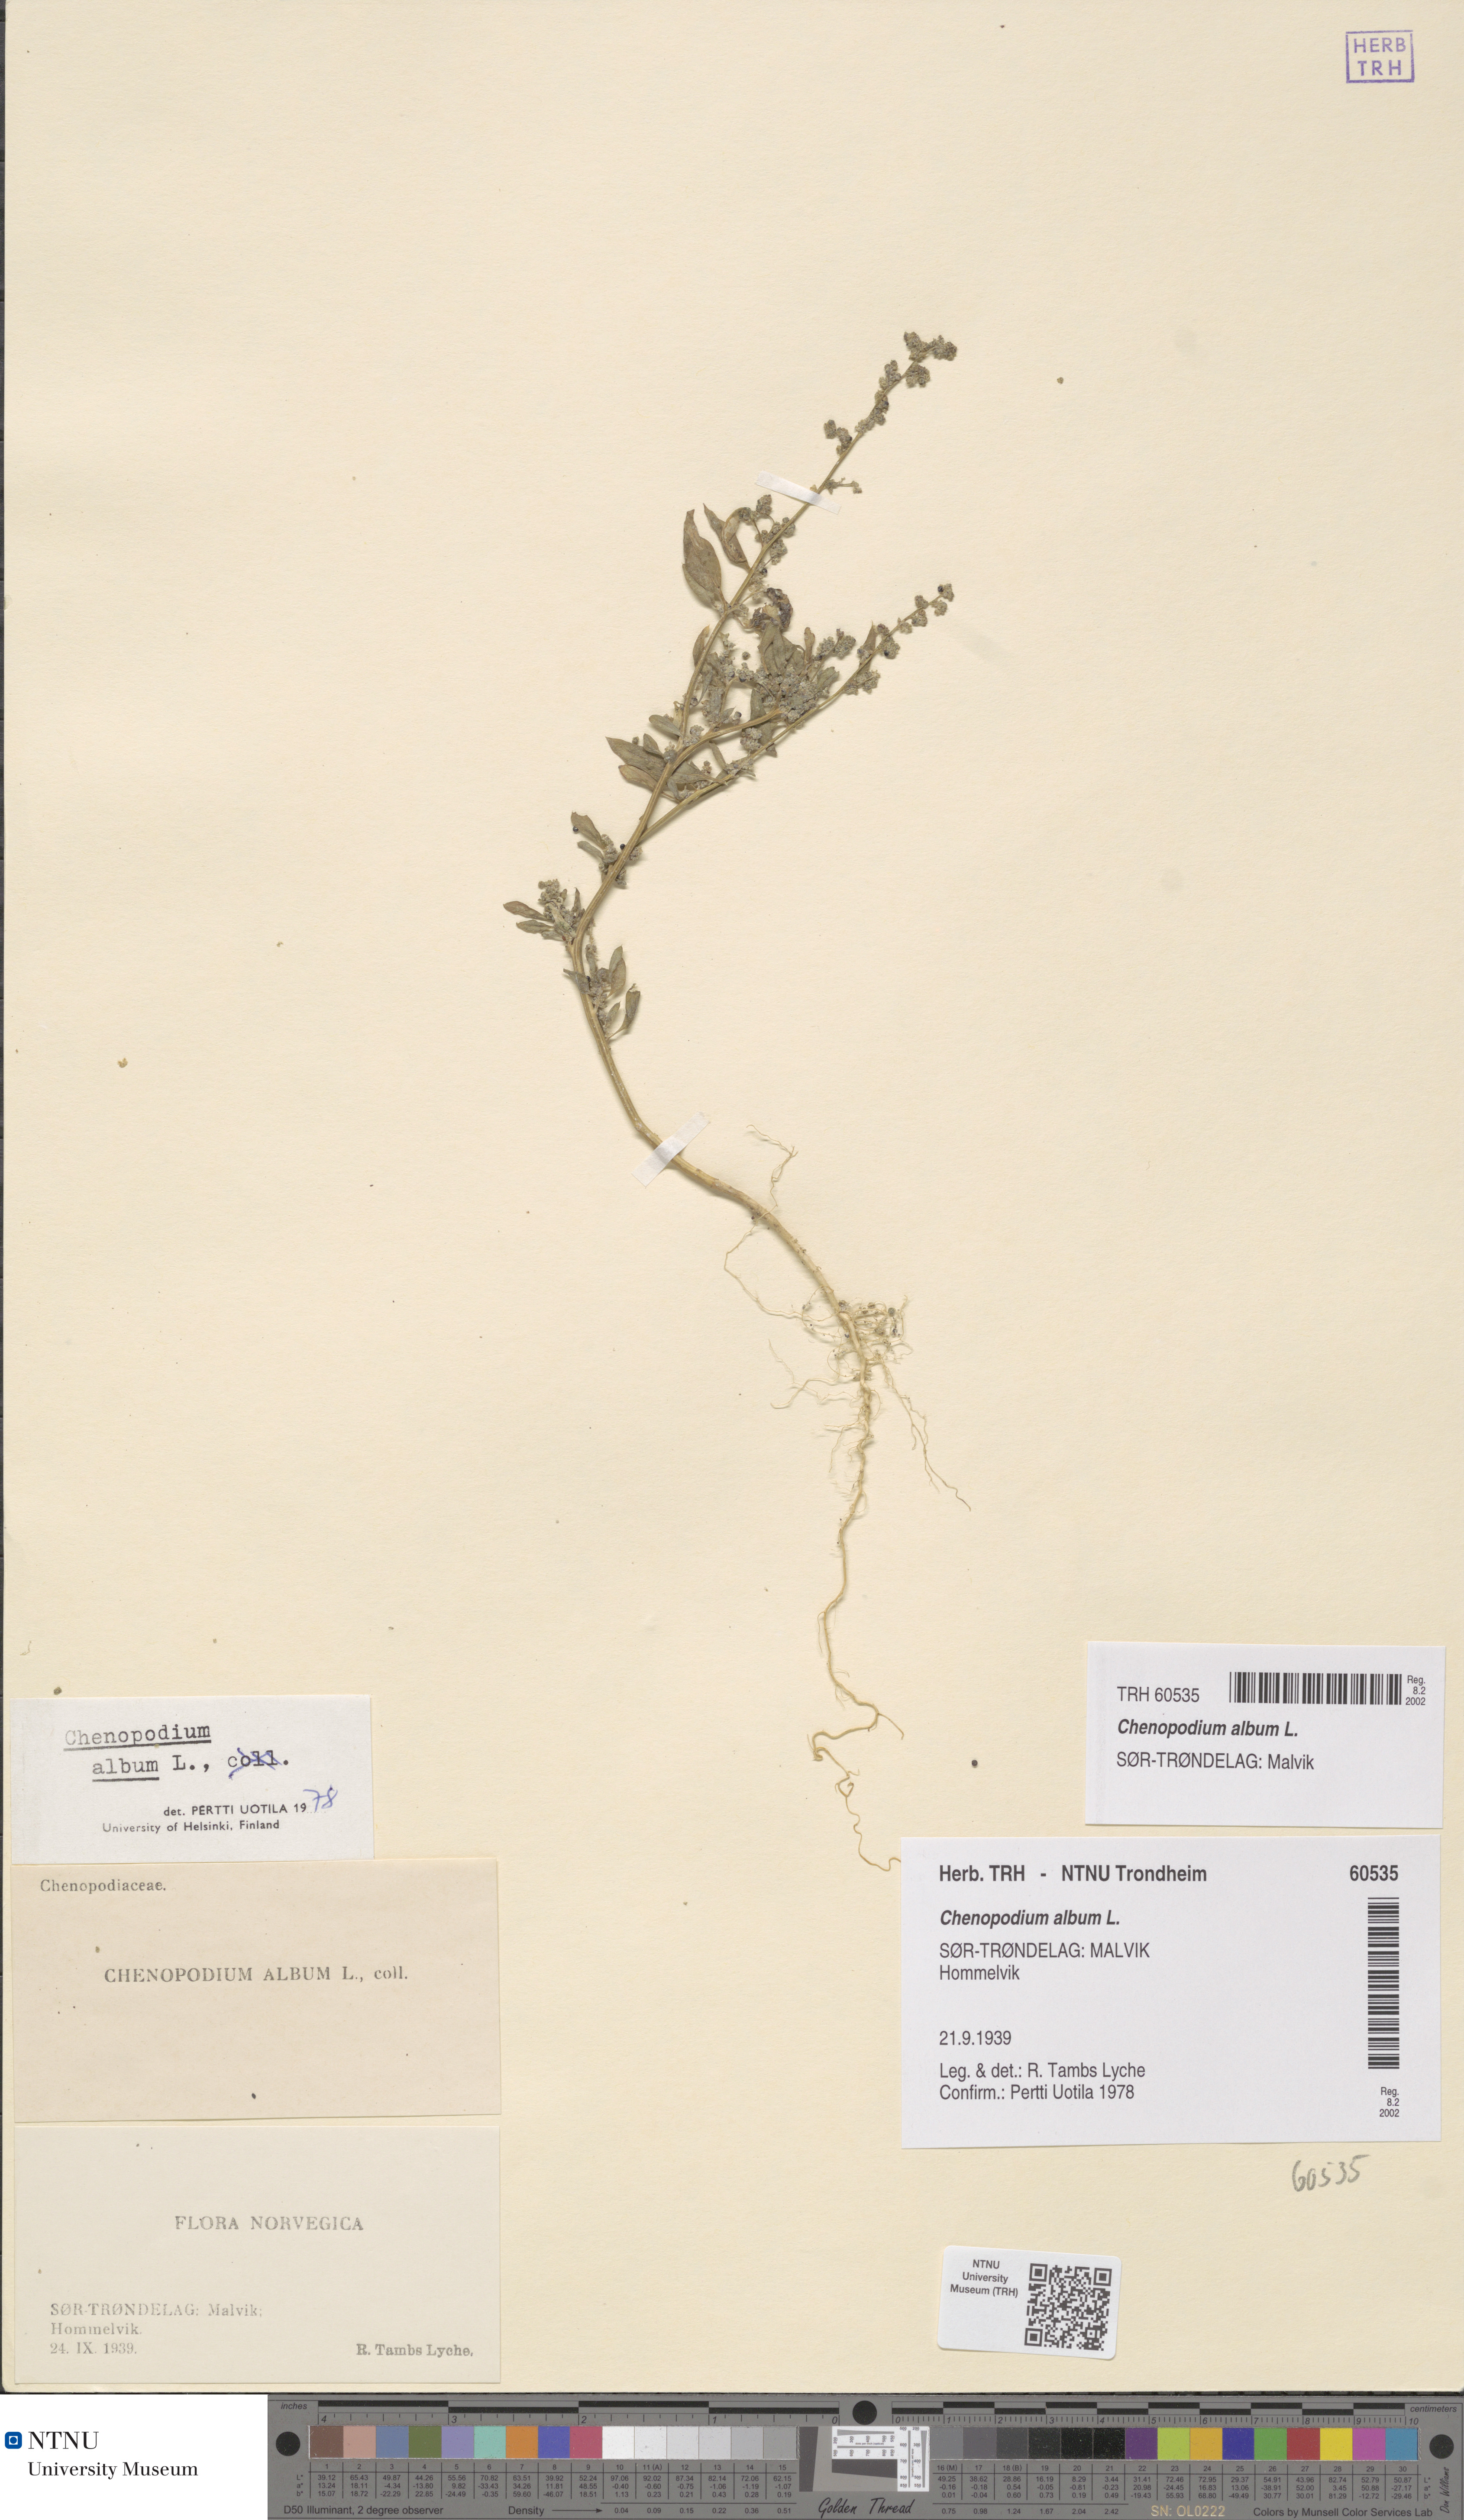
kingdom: Plantae
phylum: Tracheophyta
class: Magnoliopsida
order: Caryophyllales
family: Amaranthaceae
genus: Chenopodium
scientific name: Chenopodium album
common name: Fat-hen
